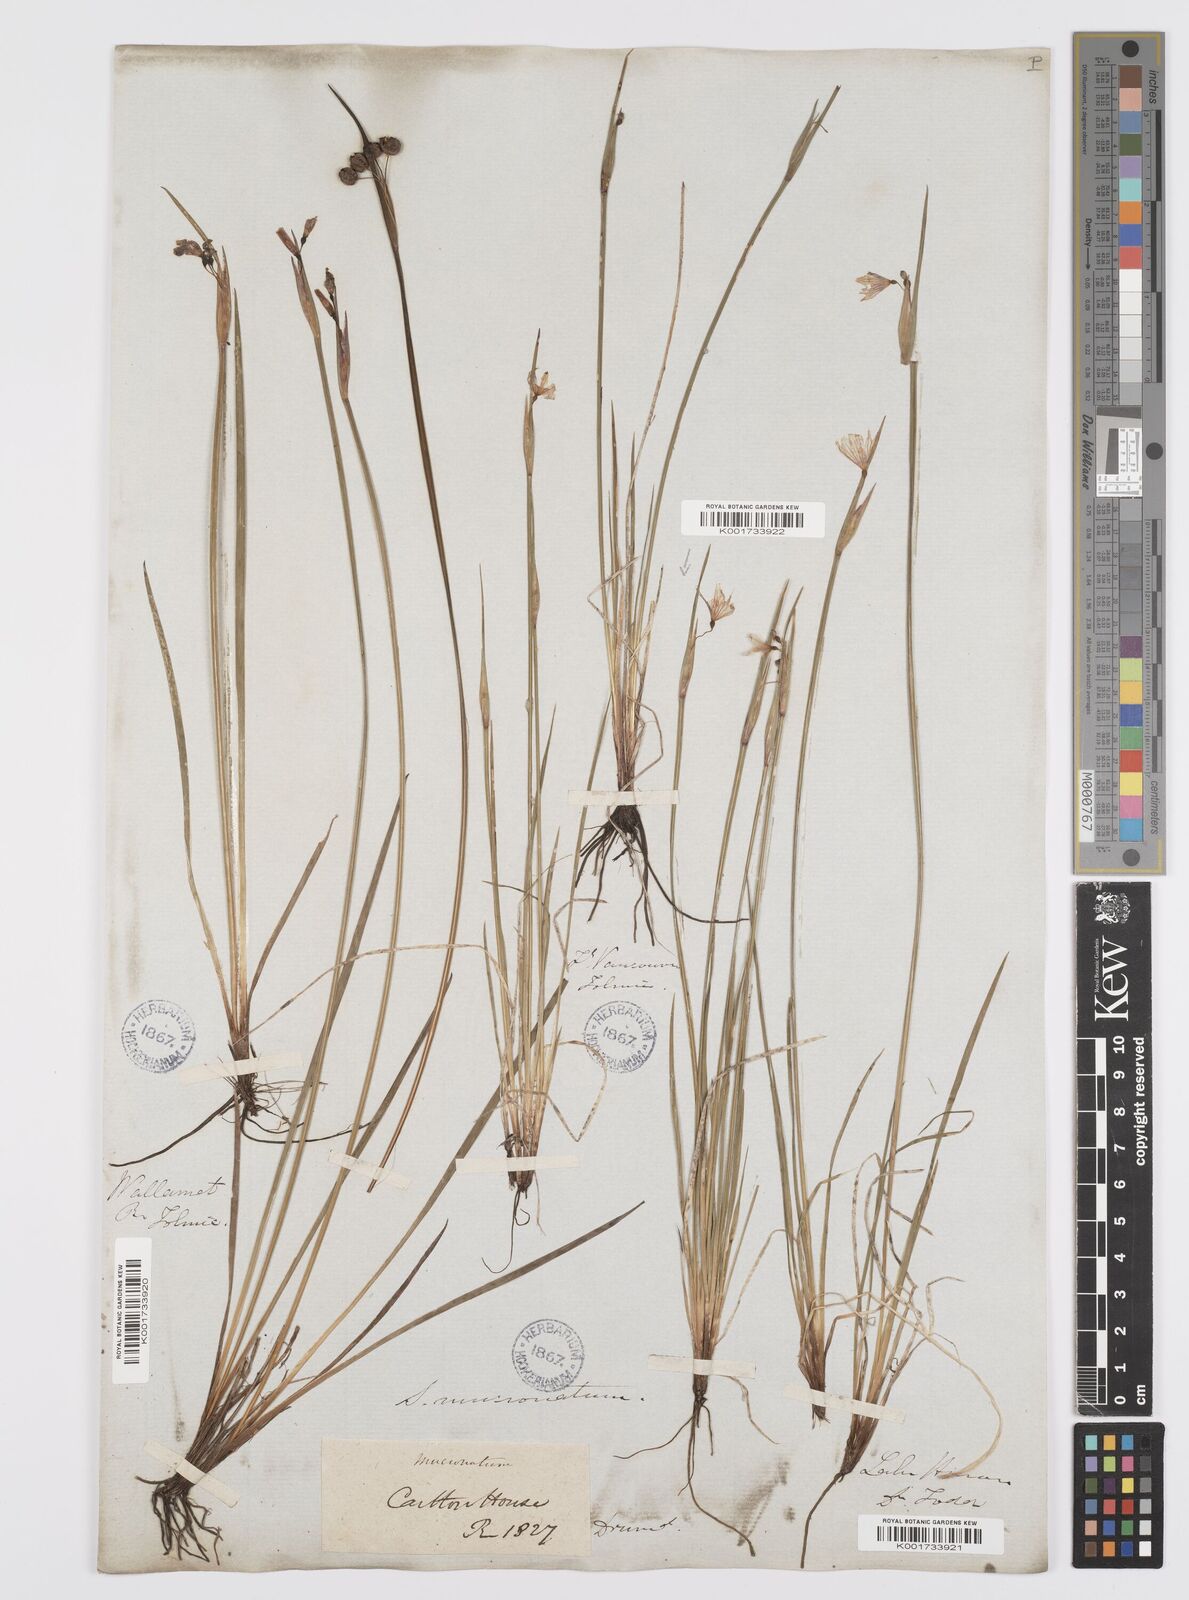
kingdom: Plantae
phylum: Tracheophyta
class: Liliopsida
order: Asparagales
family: Iridaceae
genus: Sisyrinchium
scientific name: Sisyrinchium bermudiana
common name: Blue-eyed-grass
